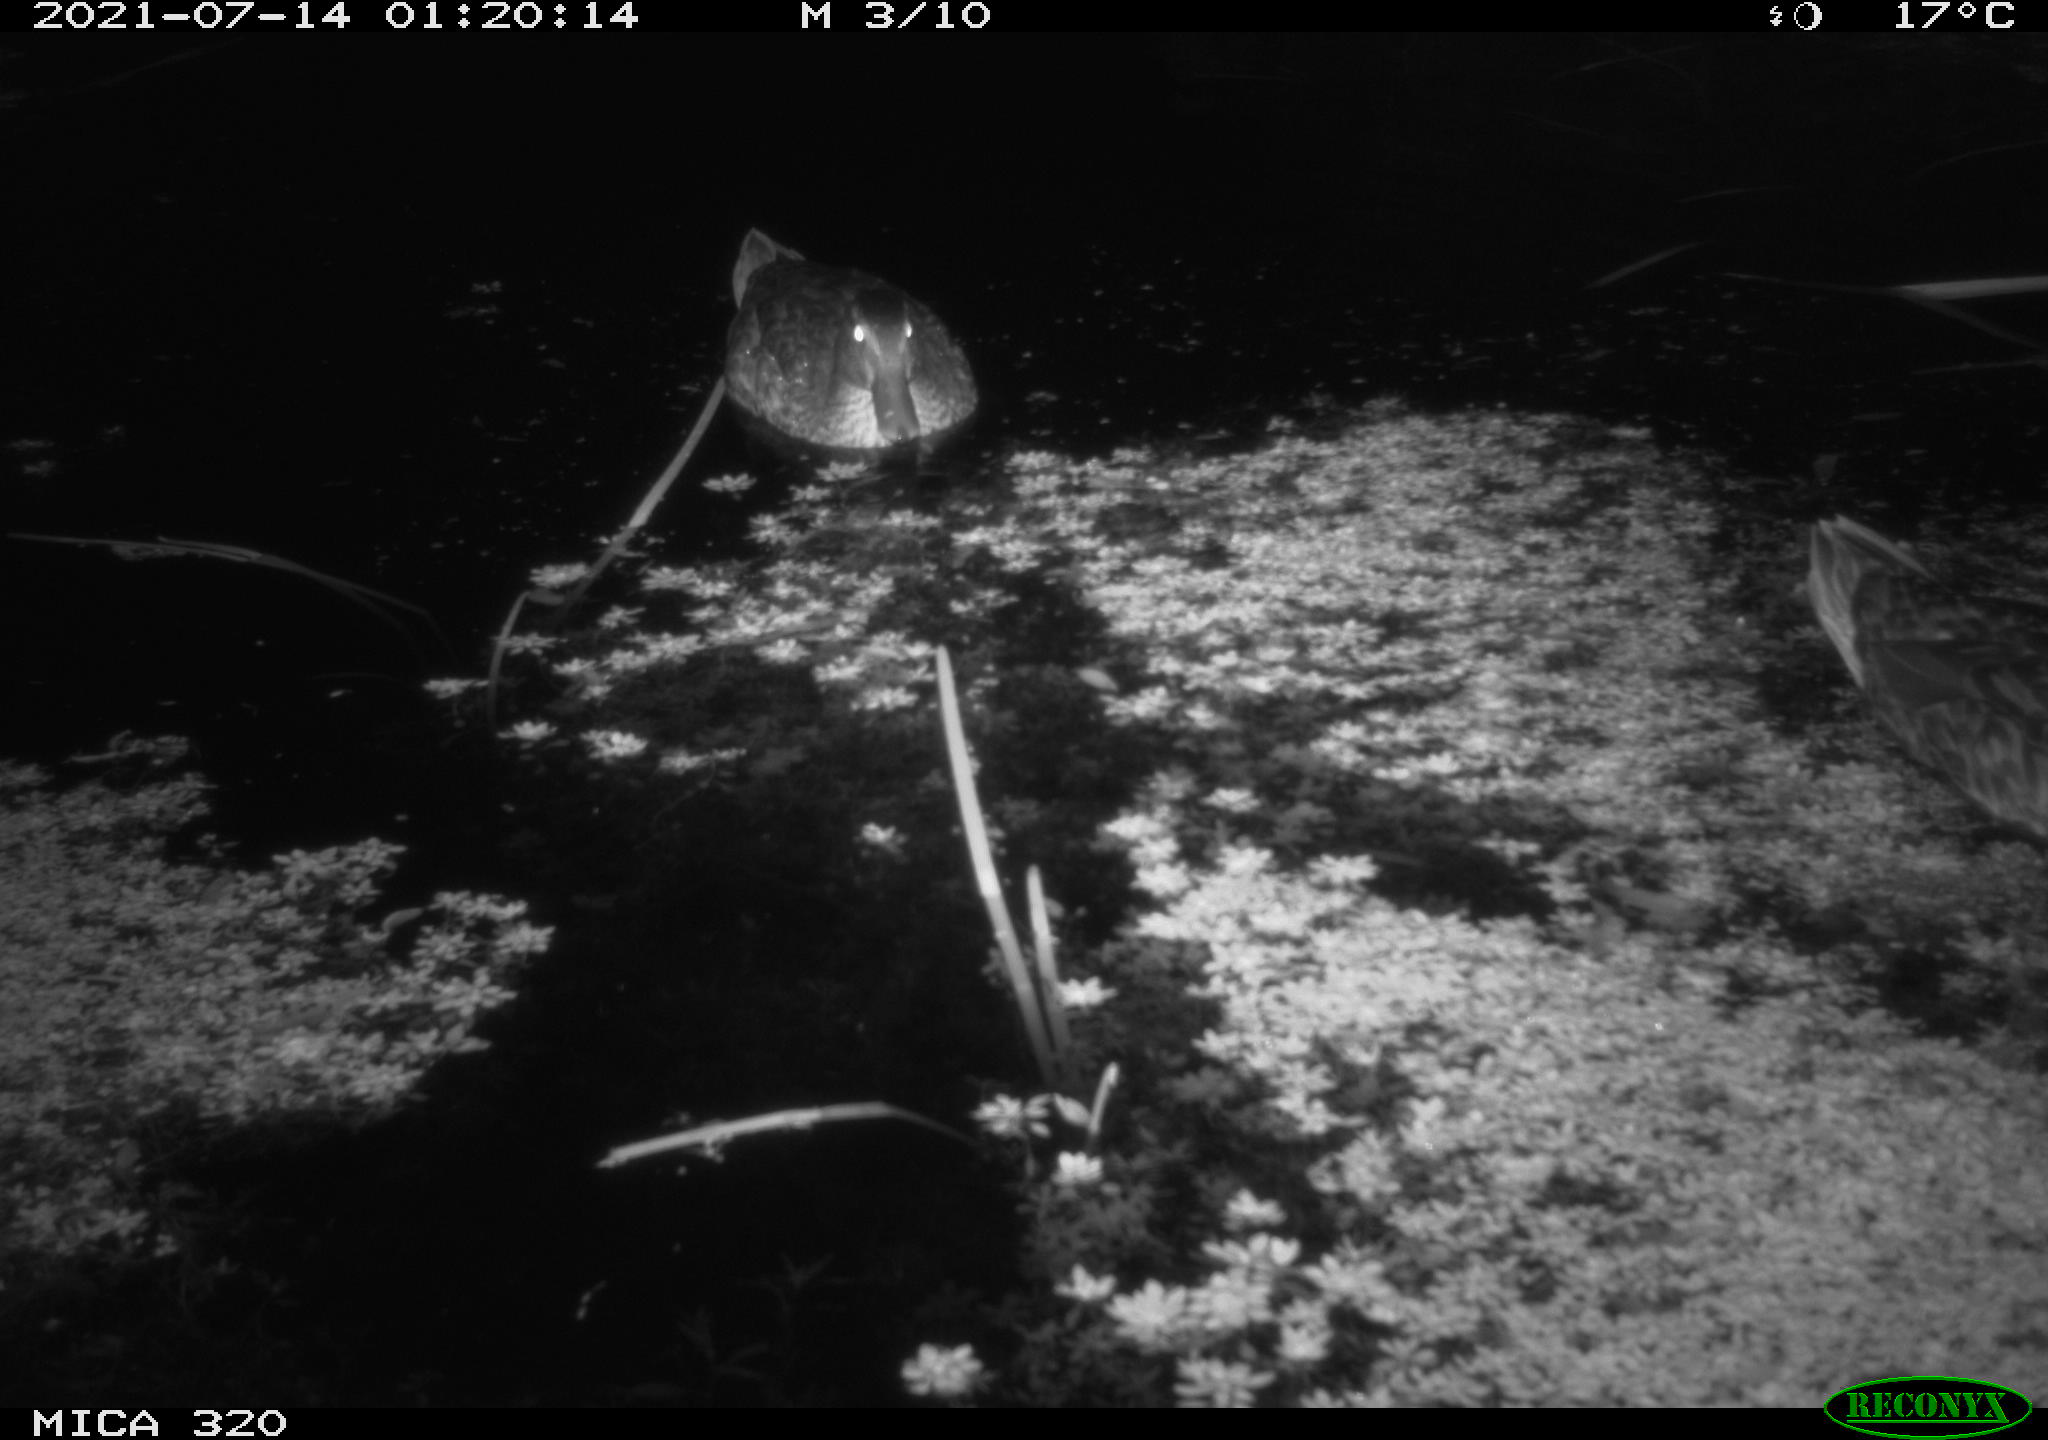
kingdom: Animalia
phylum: Chordata
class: Aves
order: Anseriformes
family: Anatidae
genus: Mareca
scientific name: Mareca strepera
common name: Gadwall
